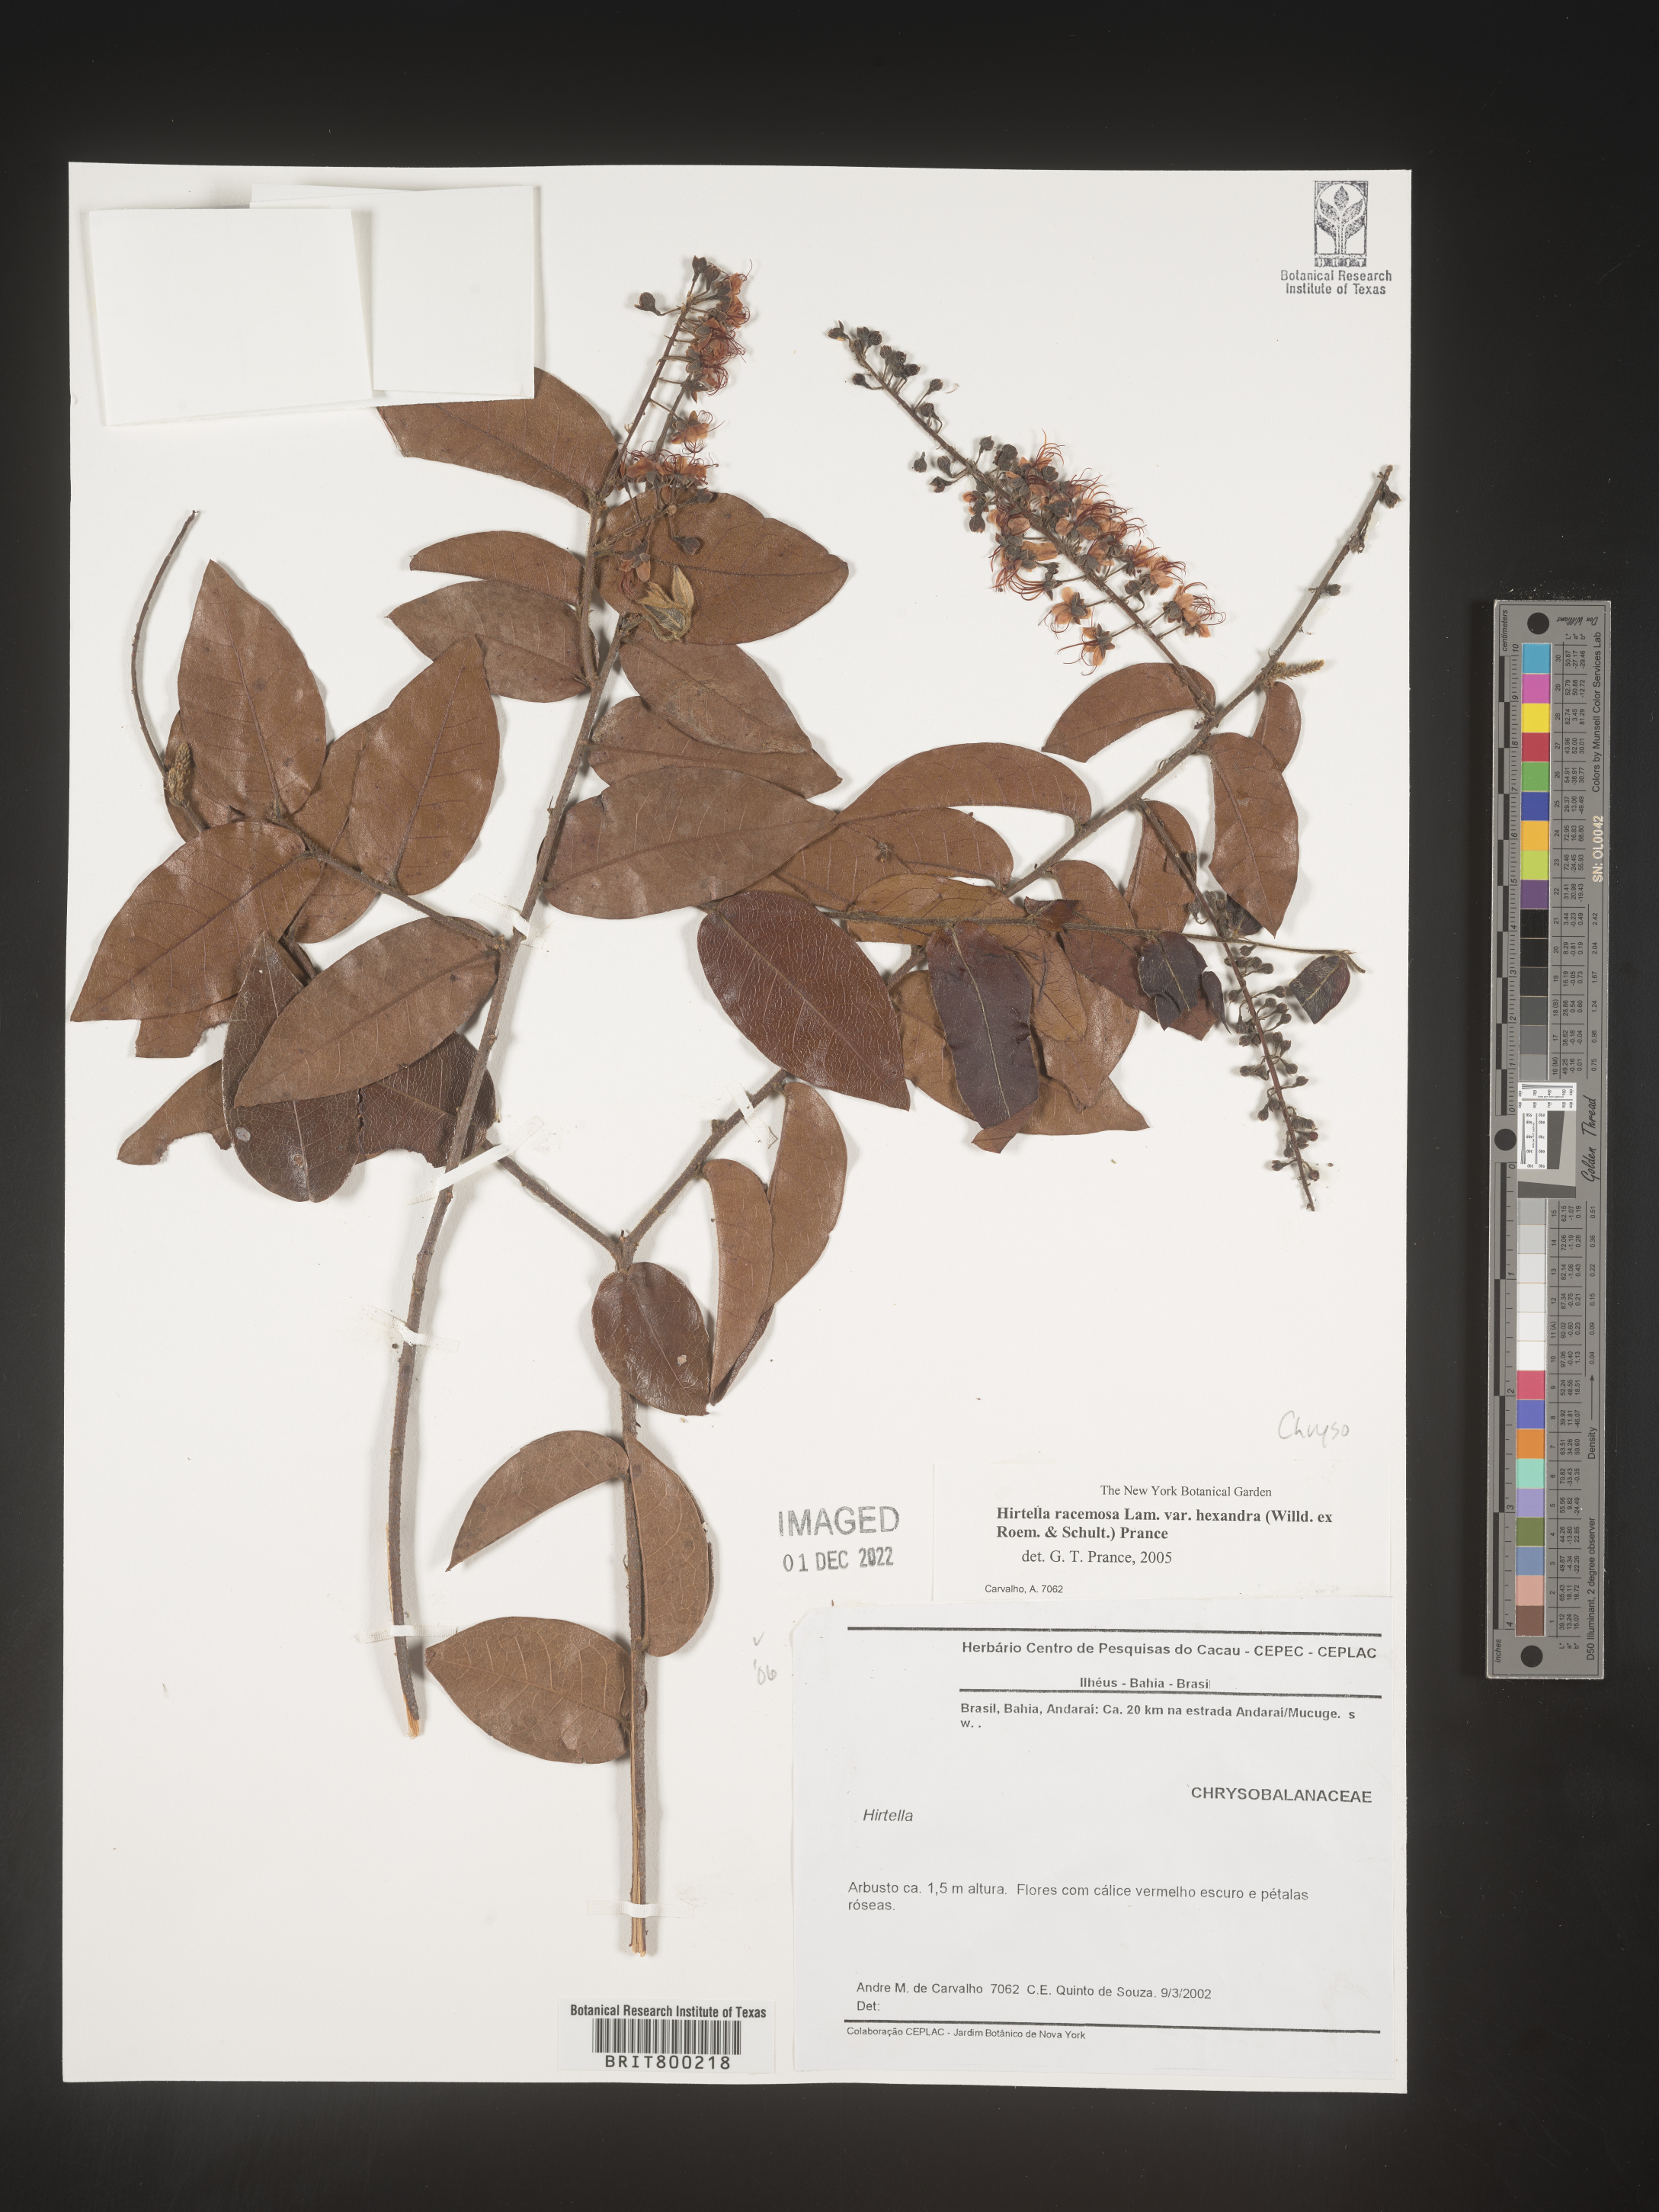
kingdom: Plantae
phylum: Tracheophyta
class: Magnoliopsida
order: Malpighiales
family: Chrysobalanaceae
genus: Hirtella
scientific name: Hirtella
